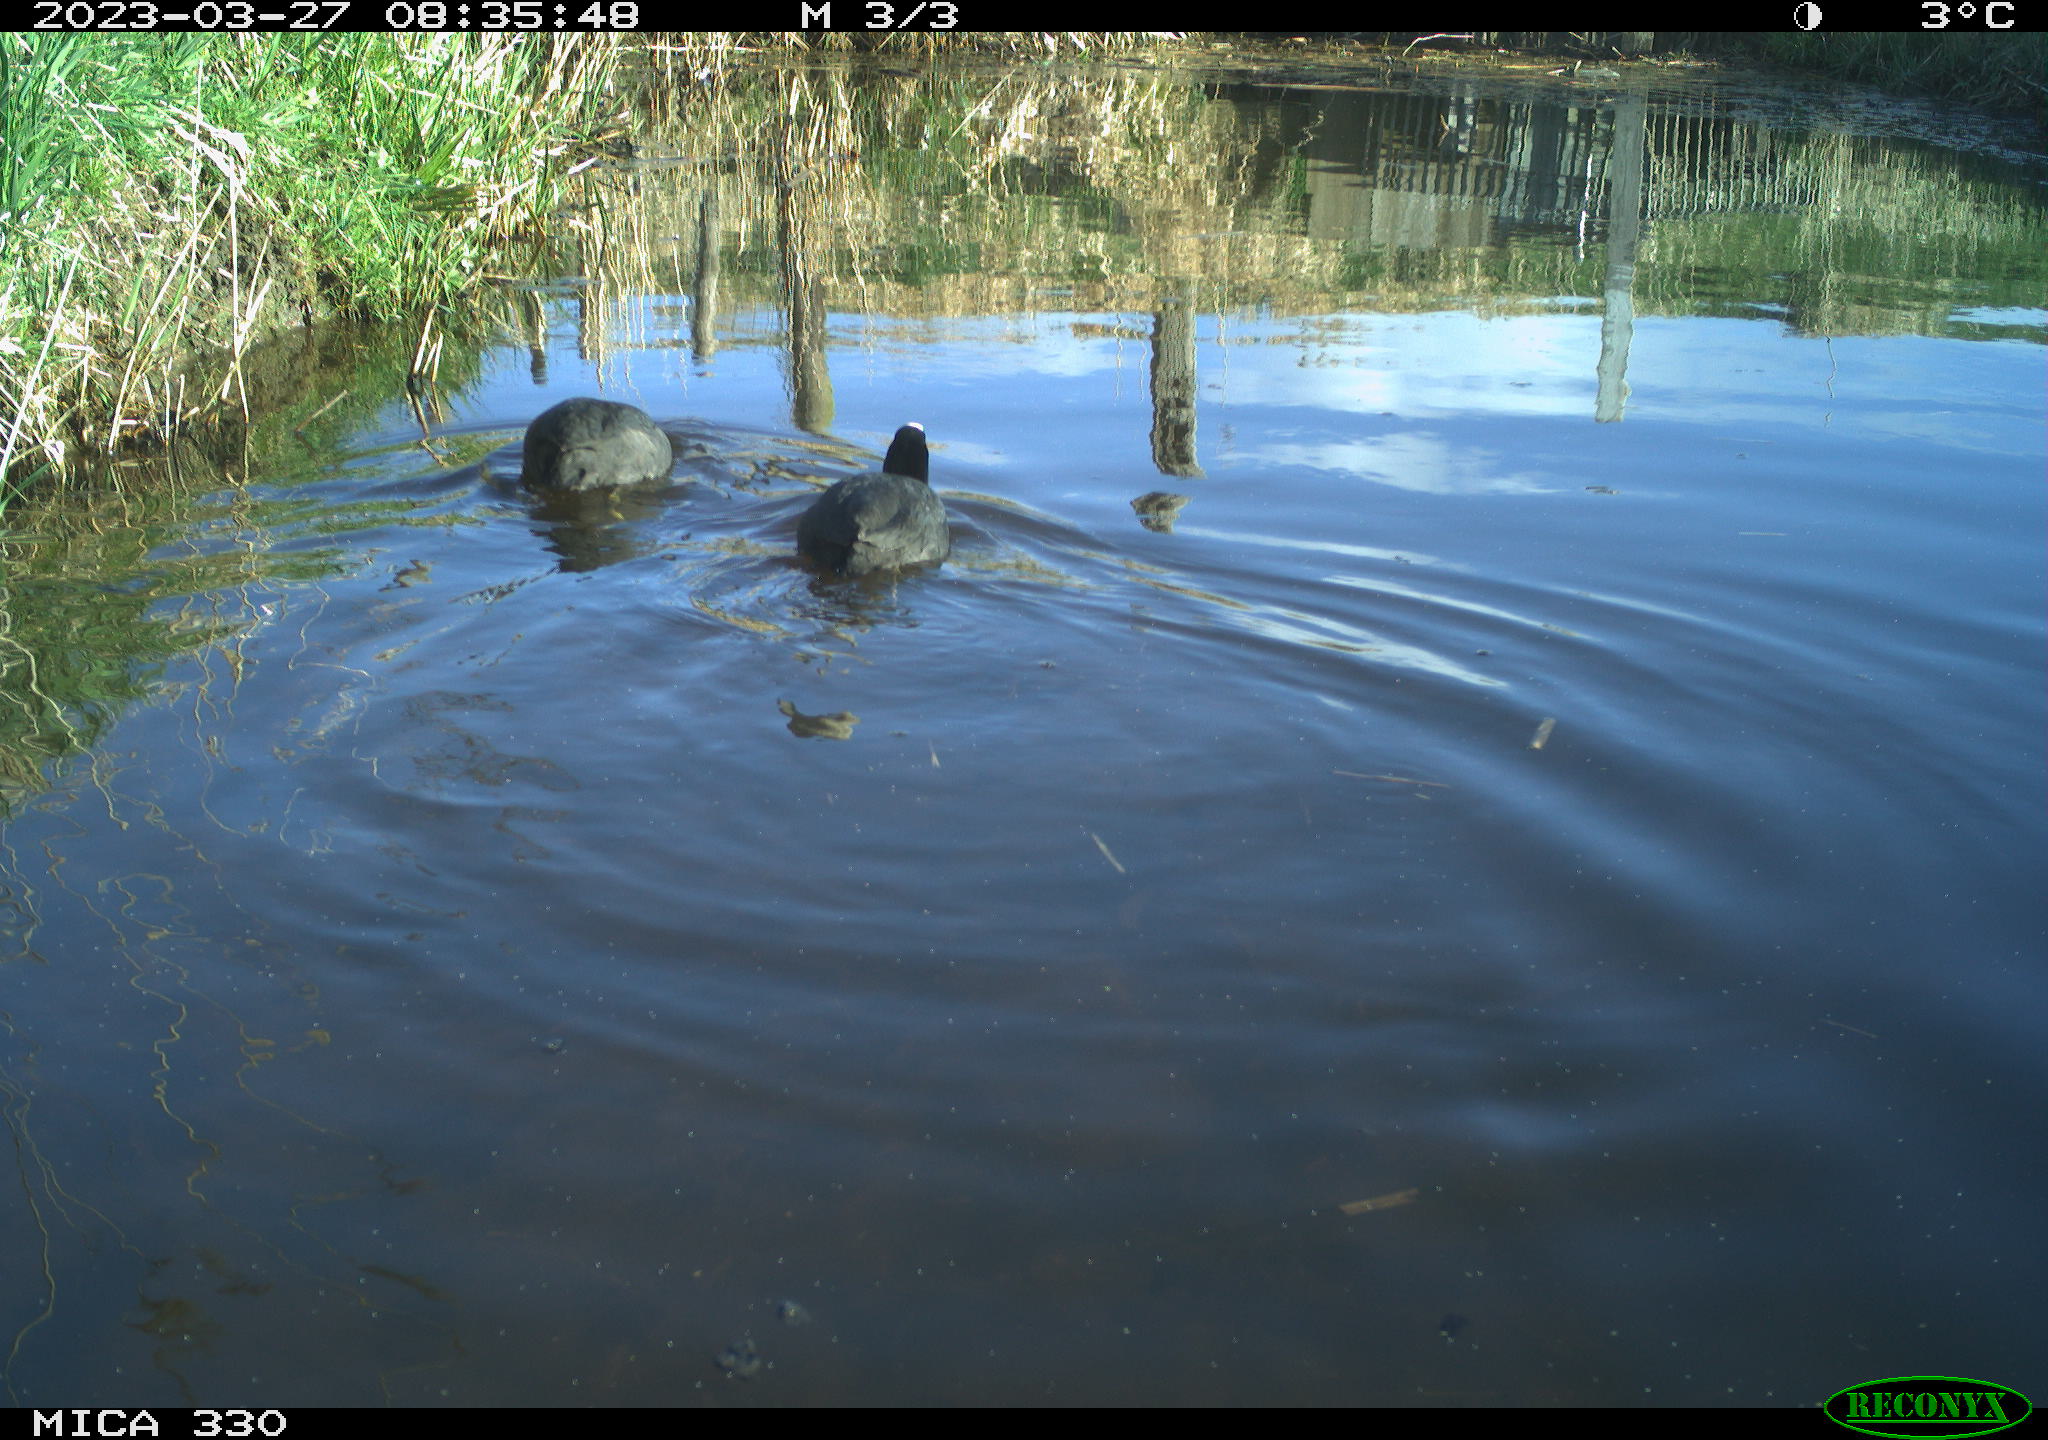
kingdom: Animalia
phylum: Chordata
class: Aves
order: Gruiformes
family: Rallidae
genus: Fulica
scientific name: Fulica atra
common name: Eurasian coot
